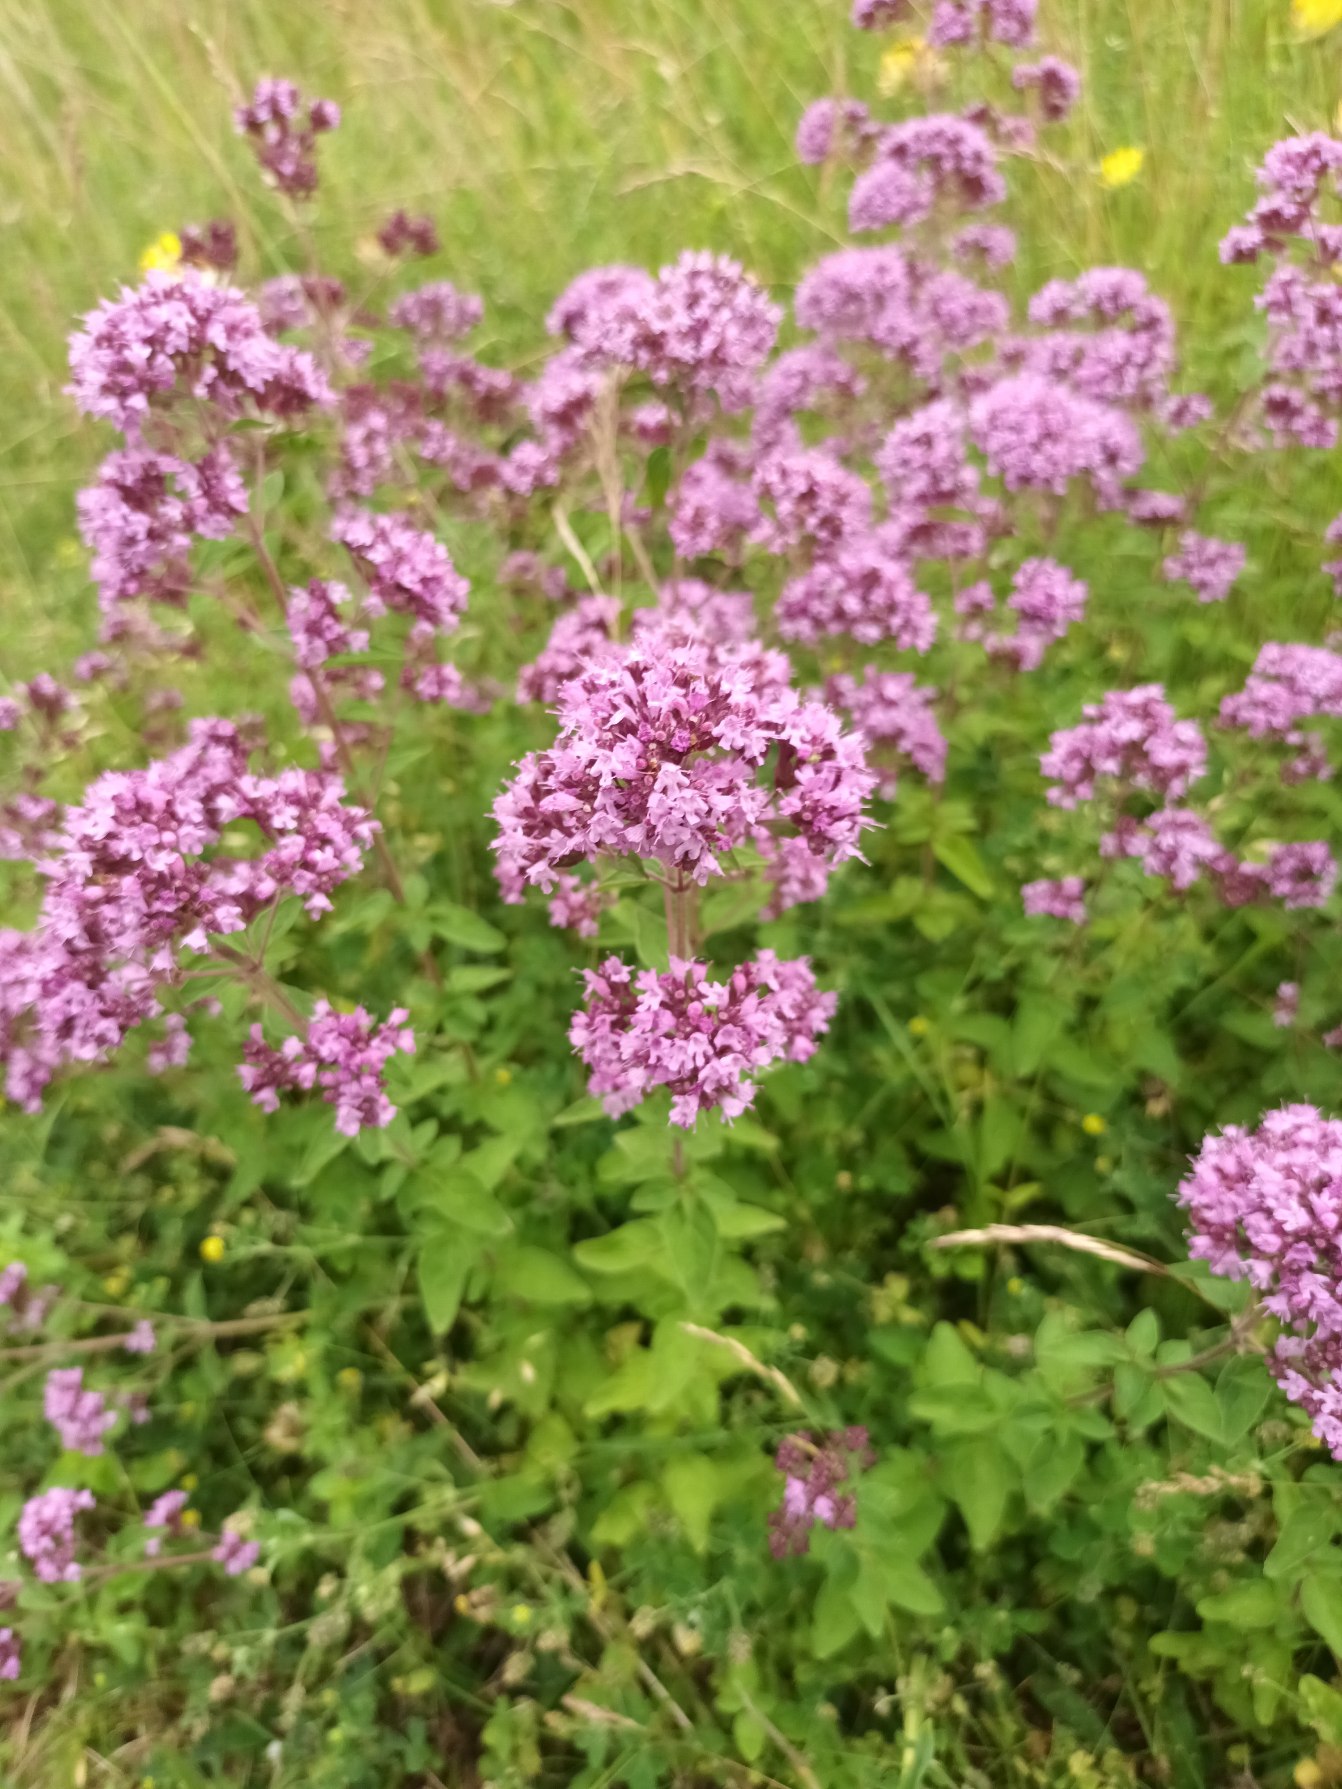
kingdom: Plantae
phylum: Tracheophyta
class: Magnoliopsida
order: Lamiales
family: Lamiaceae
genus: Origanum
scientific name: Origanum vulgare
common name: Merian
